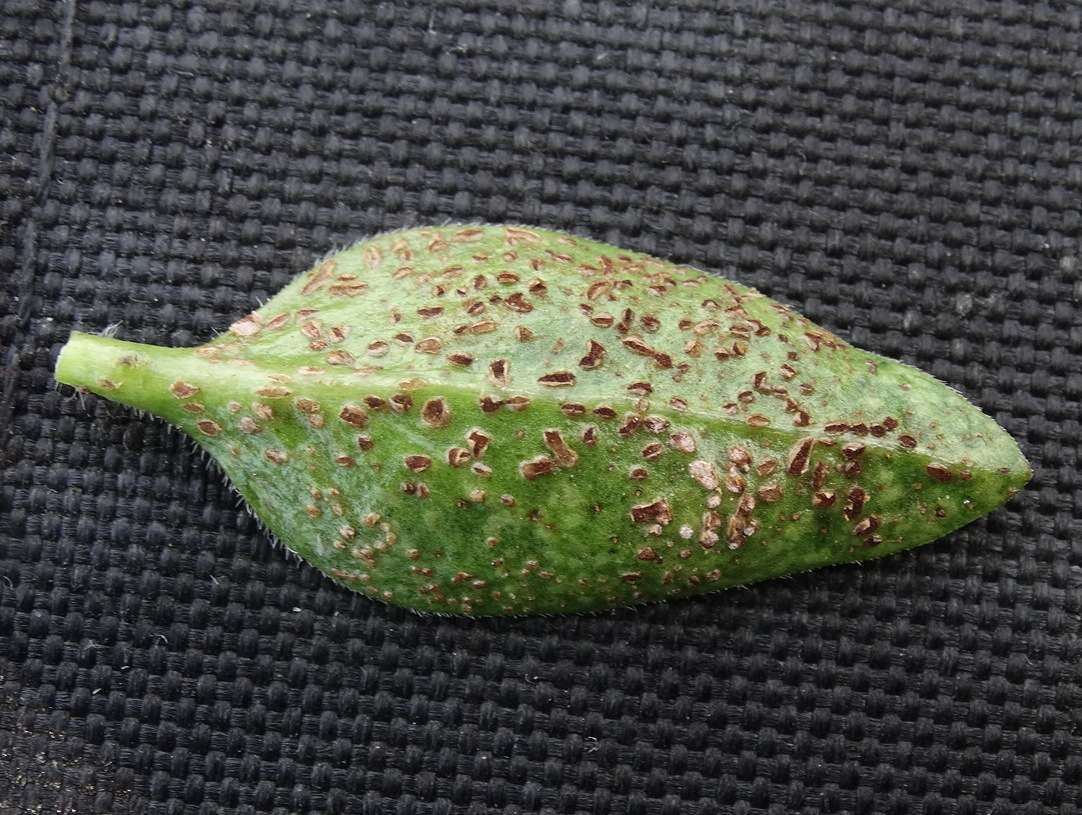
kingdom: Fungi
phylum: Basidiomycota
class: Pucciniomycetes
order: Pucciniales
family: Pucciniaceae
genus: Puccinia
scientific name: Puccinia vincae
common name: Periwinkle rust
